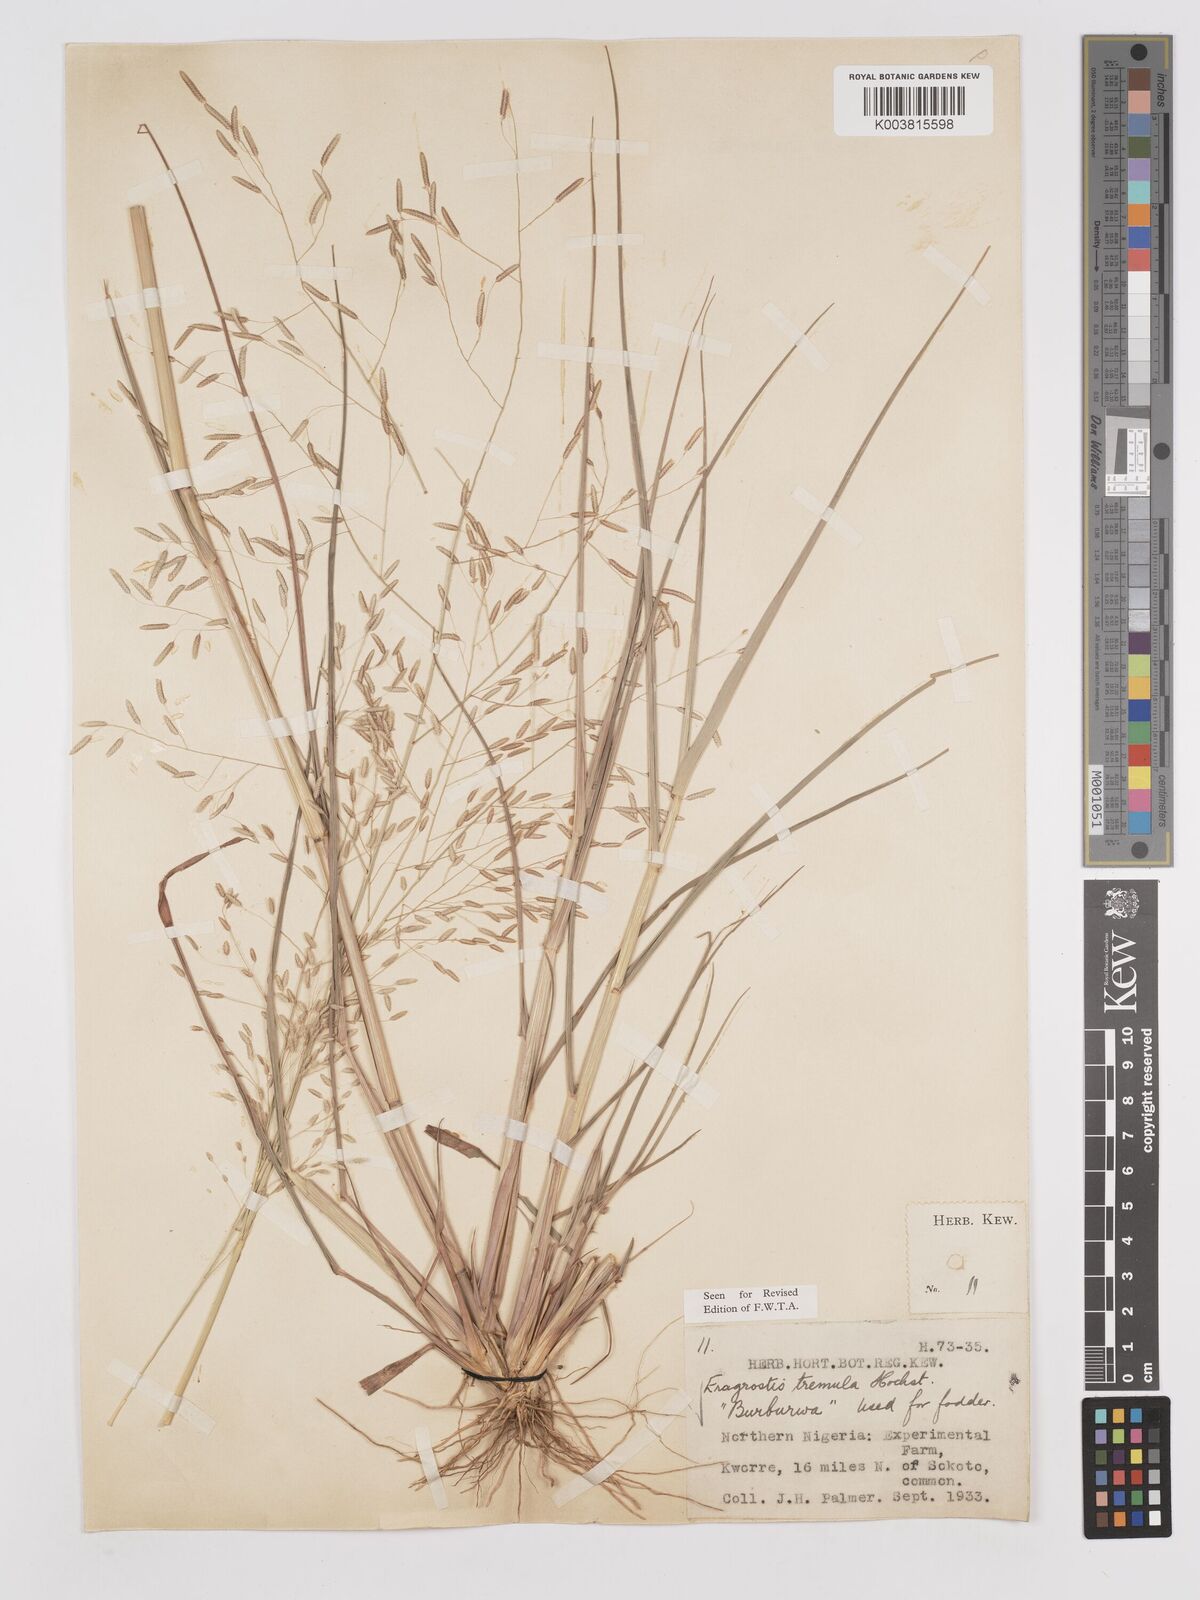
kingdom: Plantae
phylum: Tracheophyta
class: Liliopsida
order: Poales
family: Poaceae
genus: Eragrostis
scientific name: Eragrostis tremula
